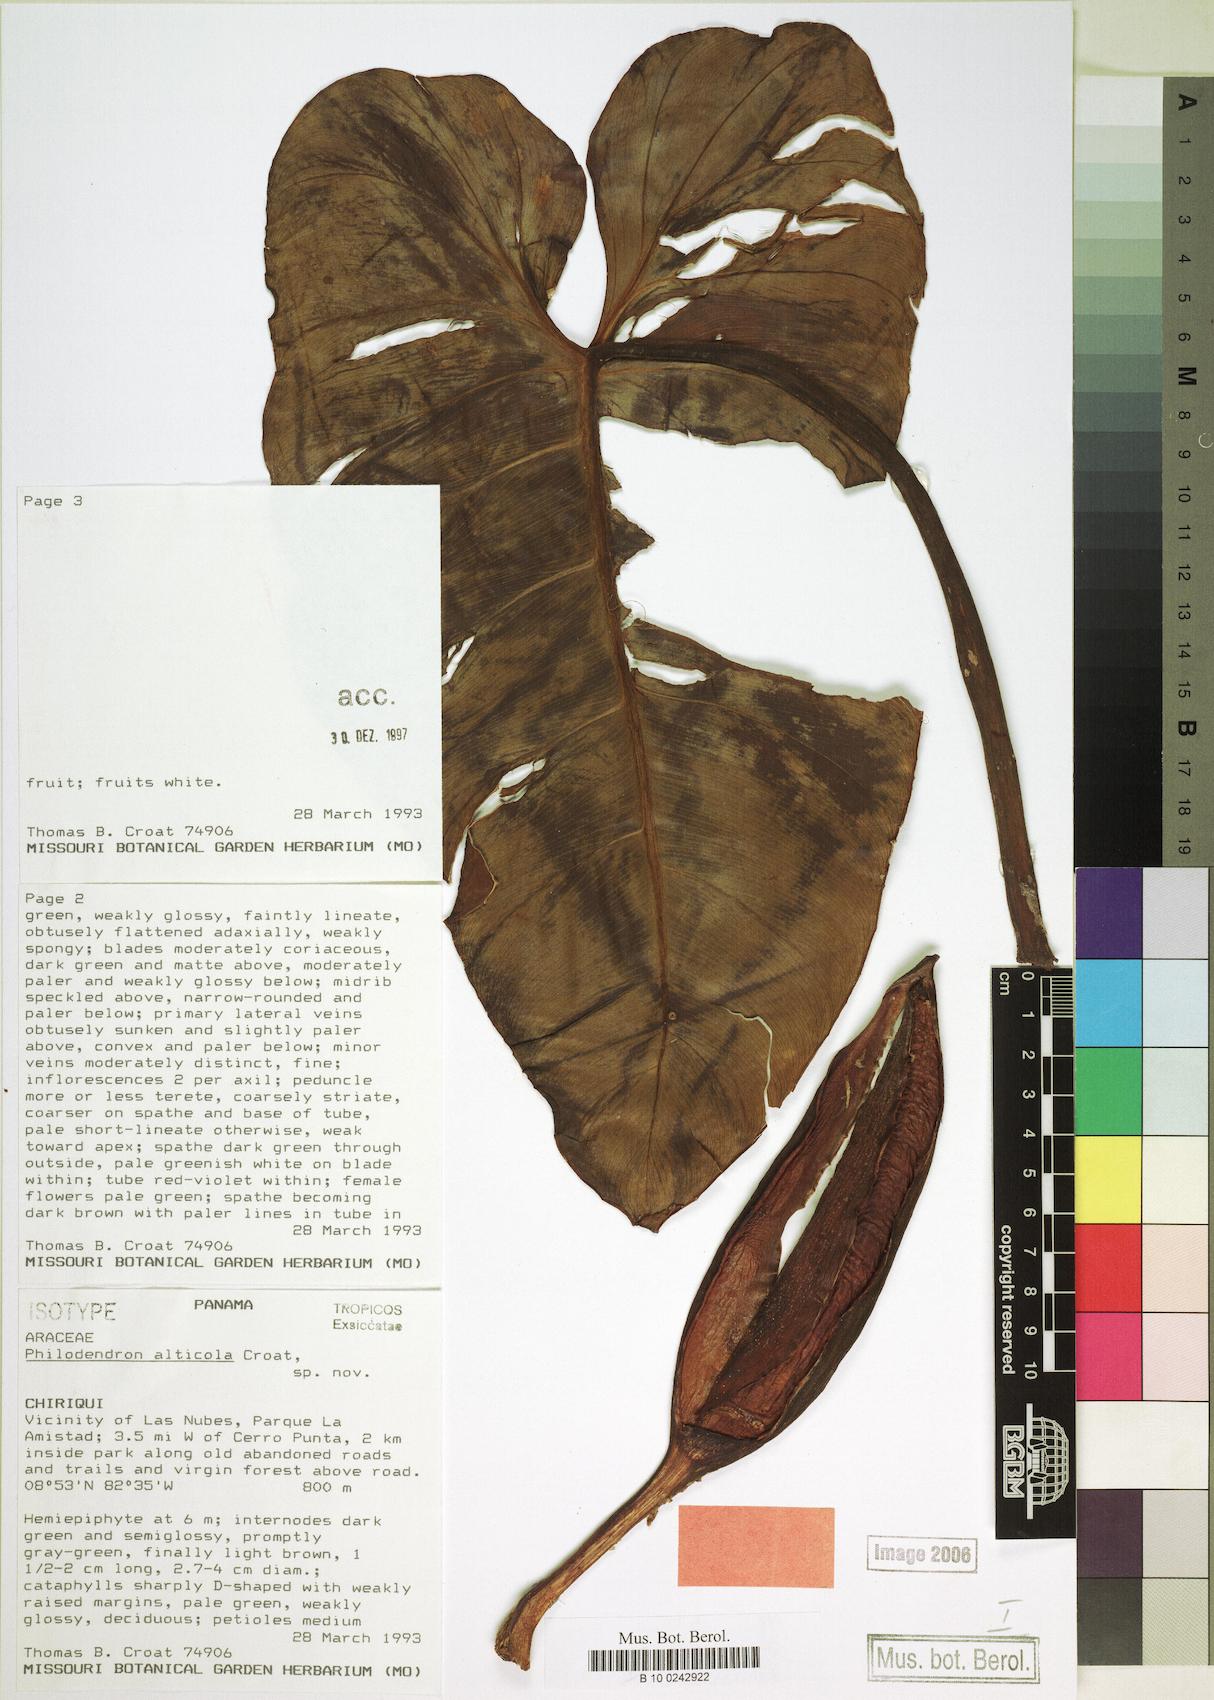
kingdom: Plantae
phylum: Tracheophyta
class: Liliopsida
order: Alismatales
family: Araceae
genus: Philodendron
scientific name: Philodendron alticola
